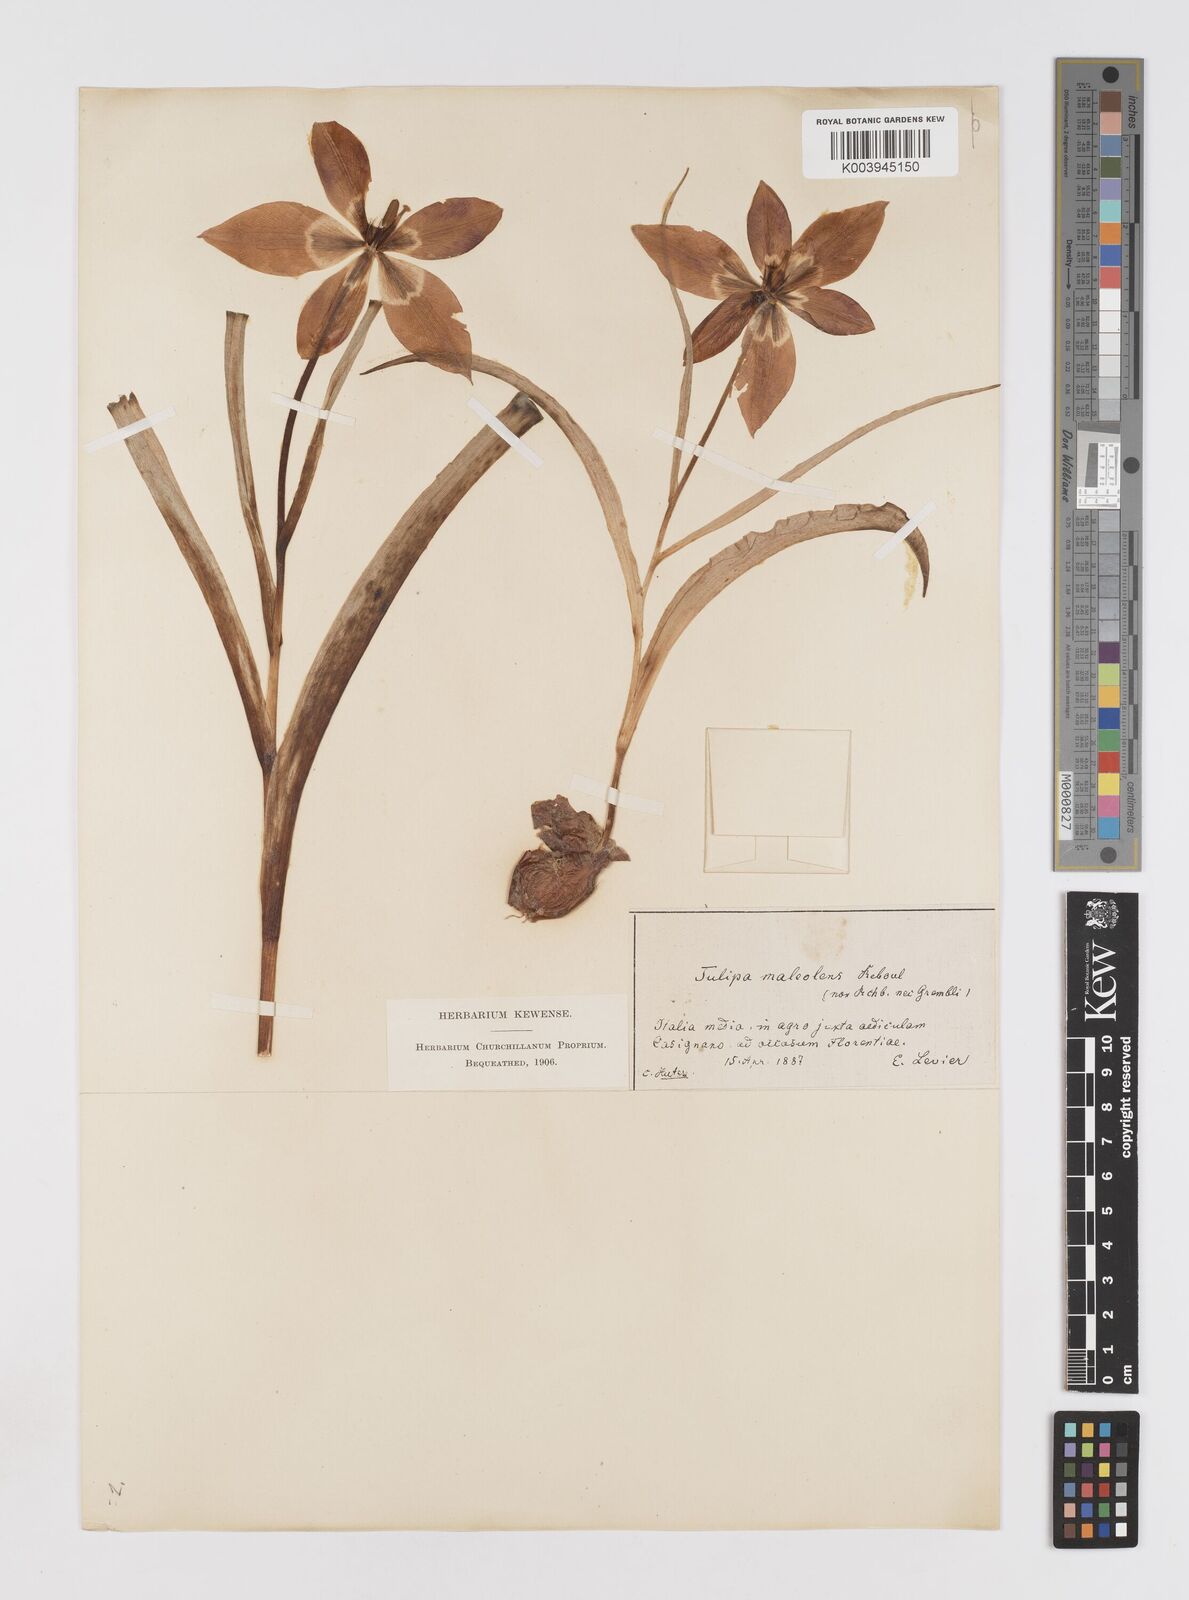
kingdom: Plantae
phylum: Tracheophyta
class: Liliopsida
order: Liliales
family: Liliaceae
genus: Tulipa
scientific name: Tulipa agenensis
